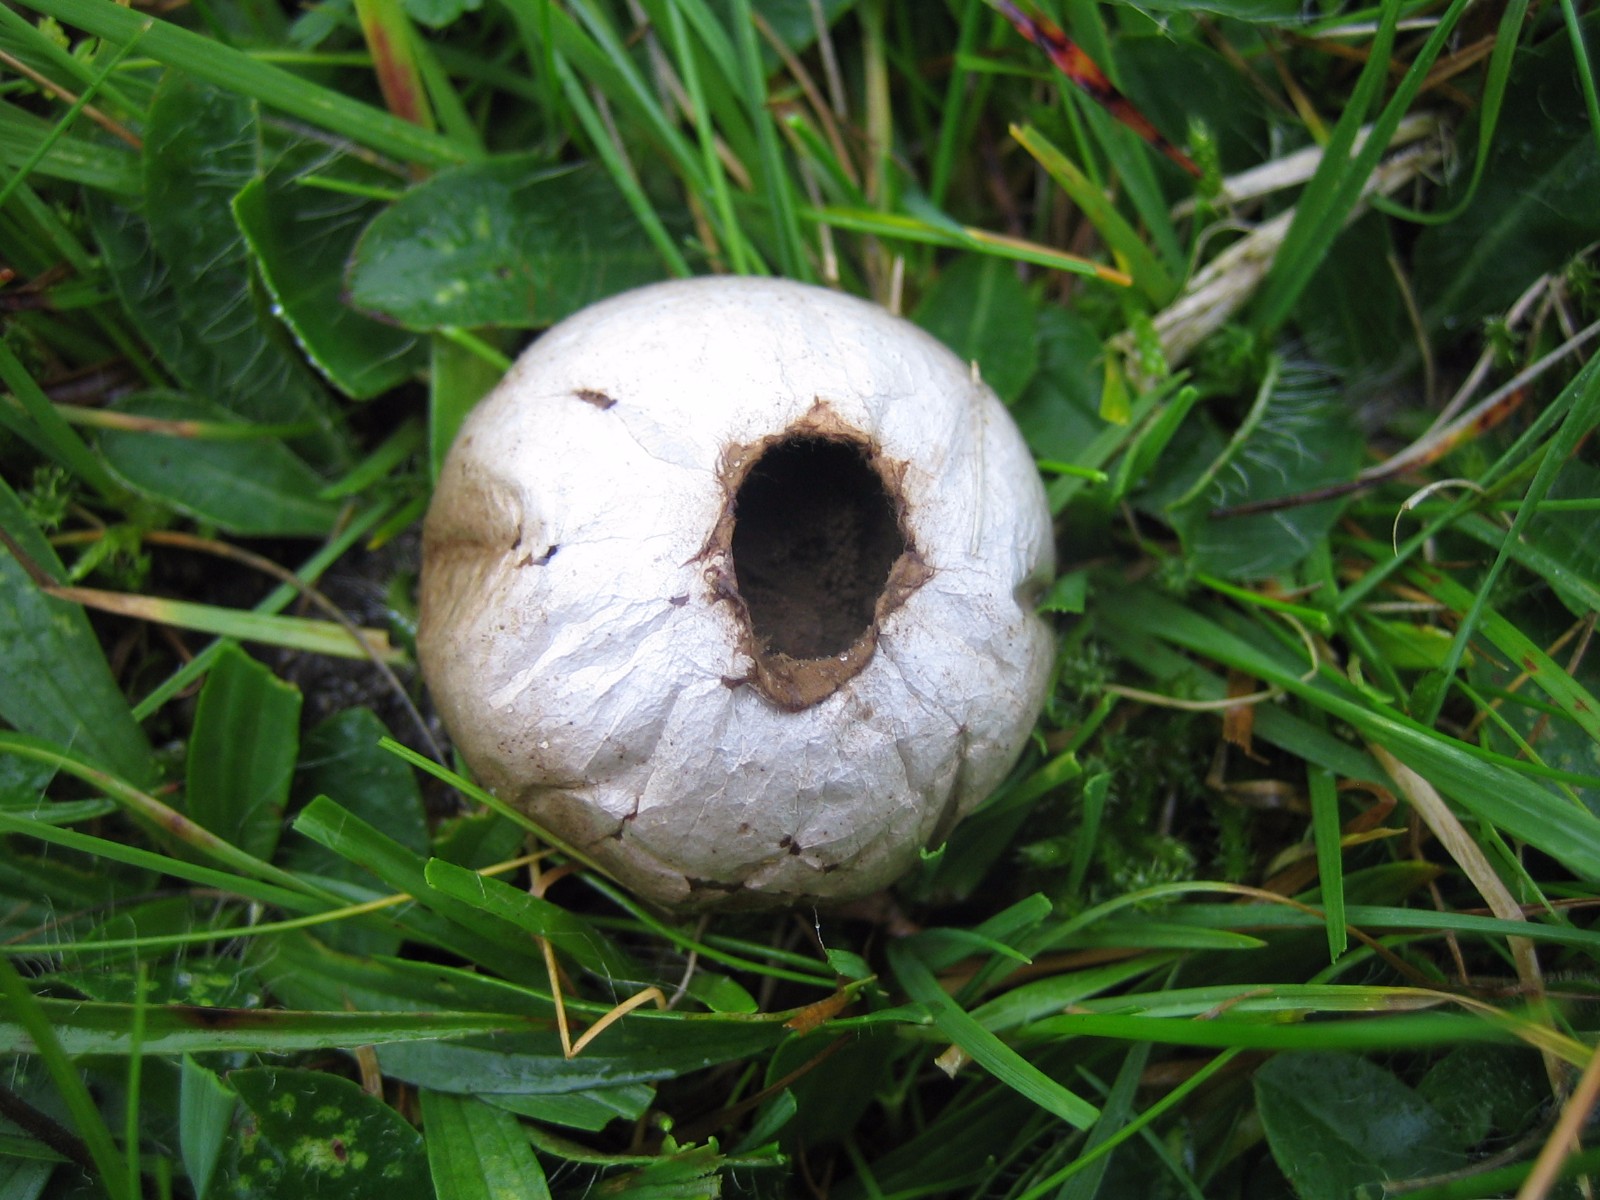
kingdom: Fungi
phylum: Basidiomycota
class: Agaricomycetes
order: Agaricales
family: Lycoperdaceae
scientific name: Lycoperdaceae
